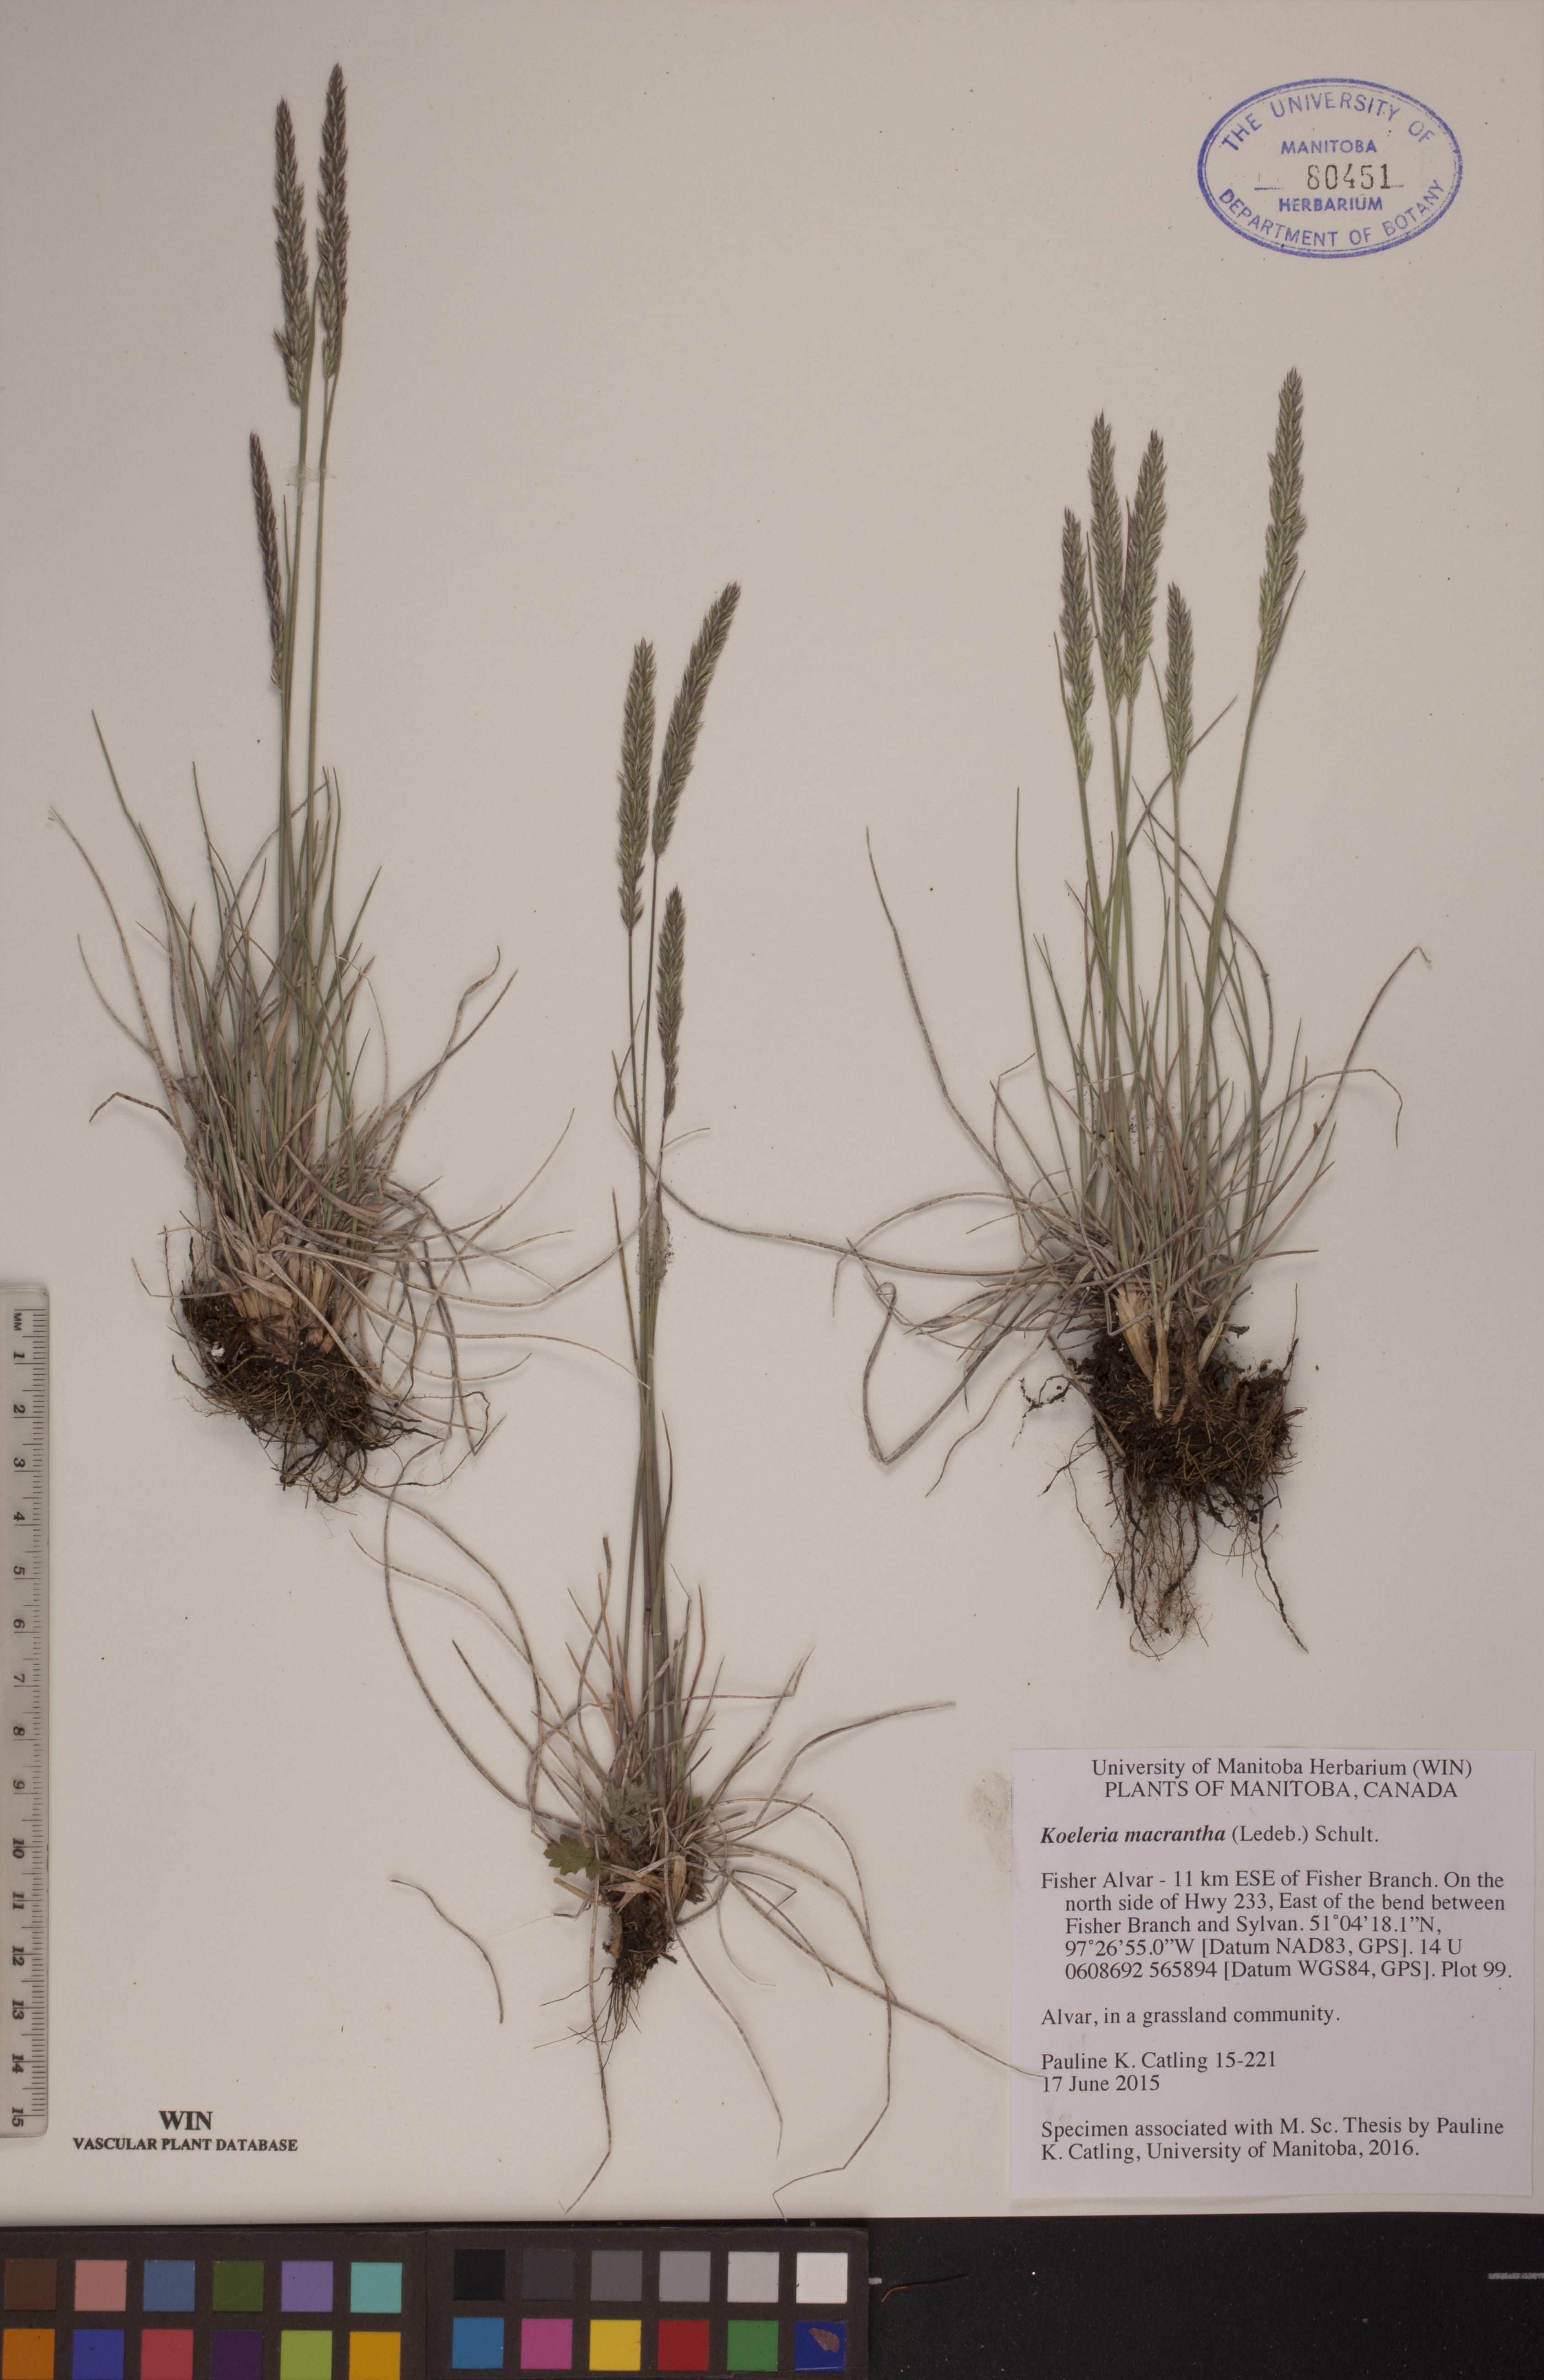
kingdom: Plantae
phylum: Tracheophyta
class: Liliopsida
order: Poales
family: Poaceae
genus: Koeleria
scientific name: Koeleria macrantha
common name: Crested hair-grass
